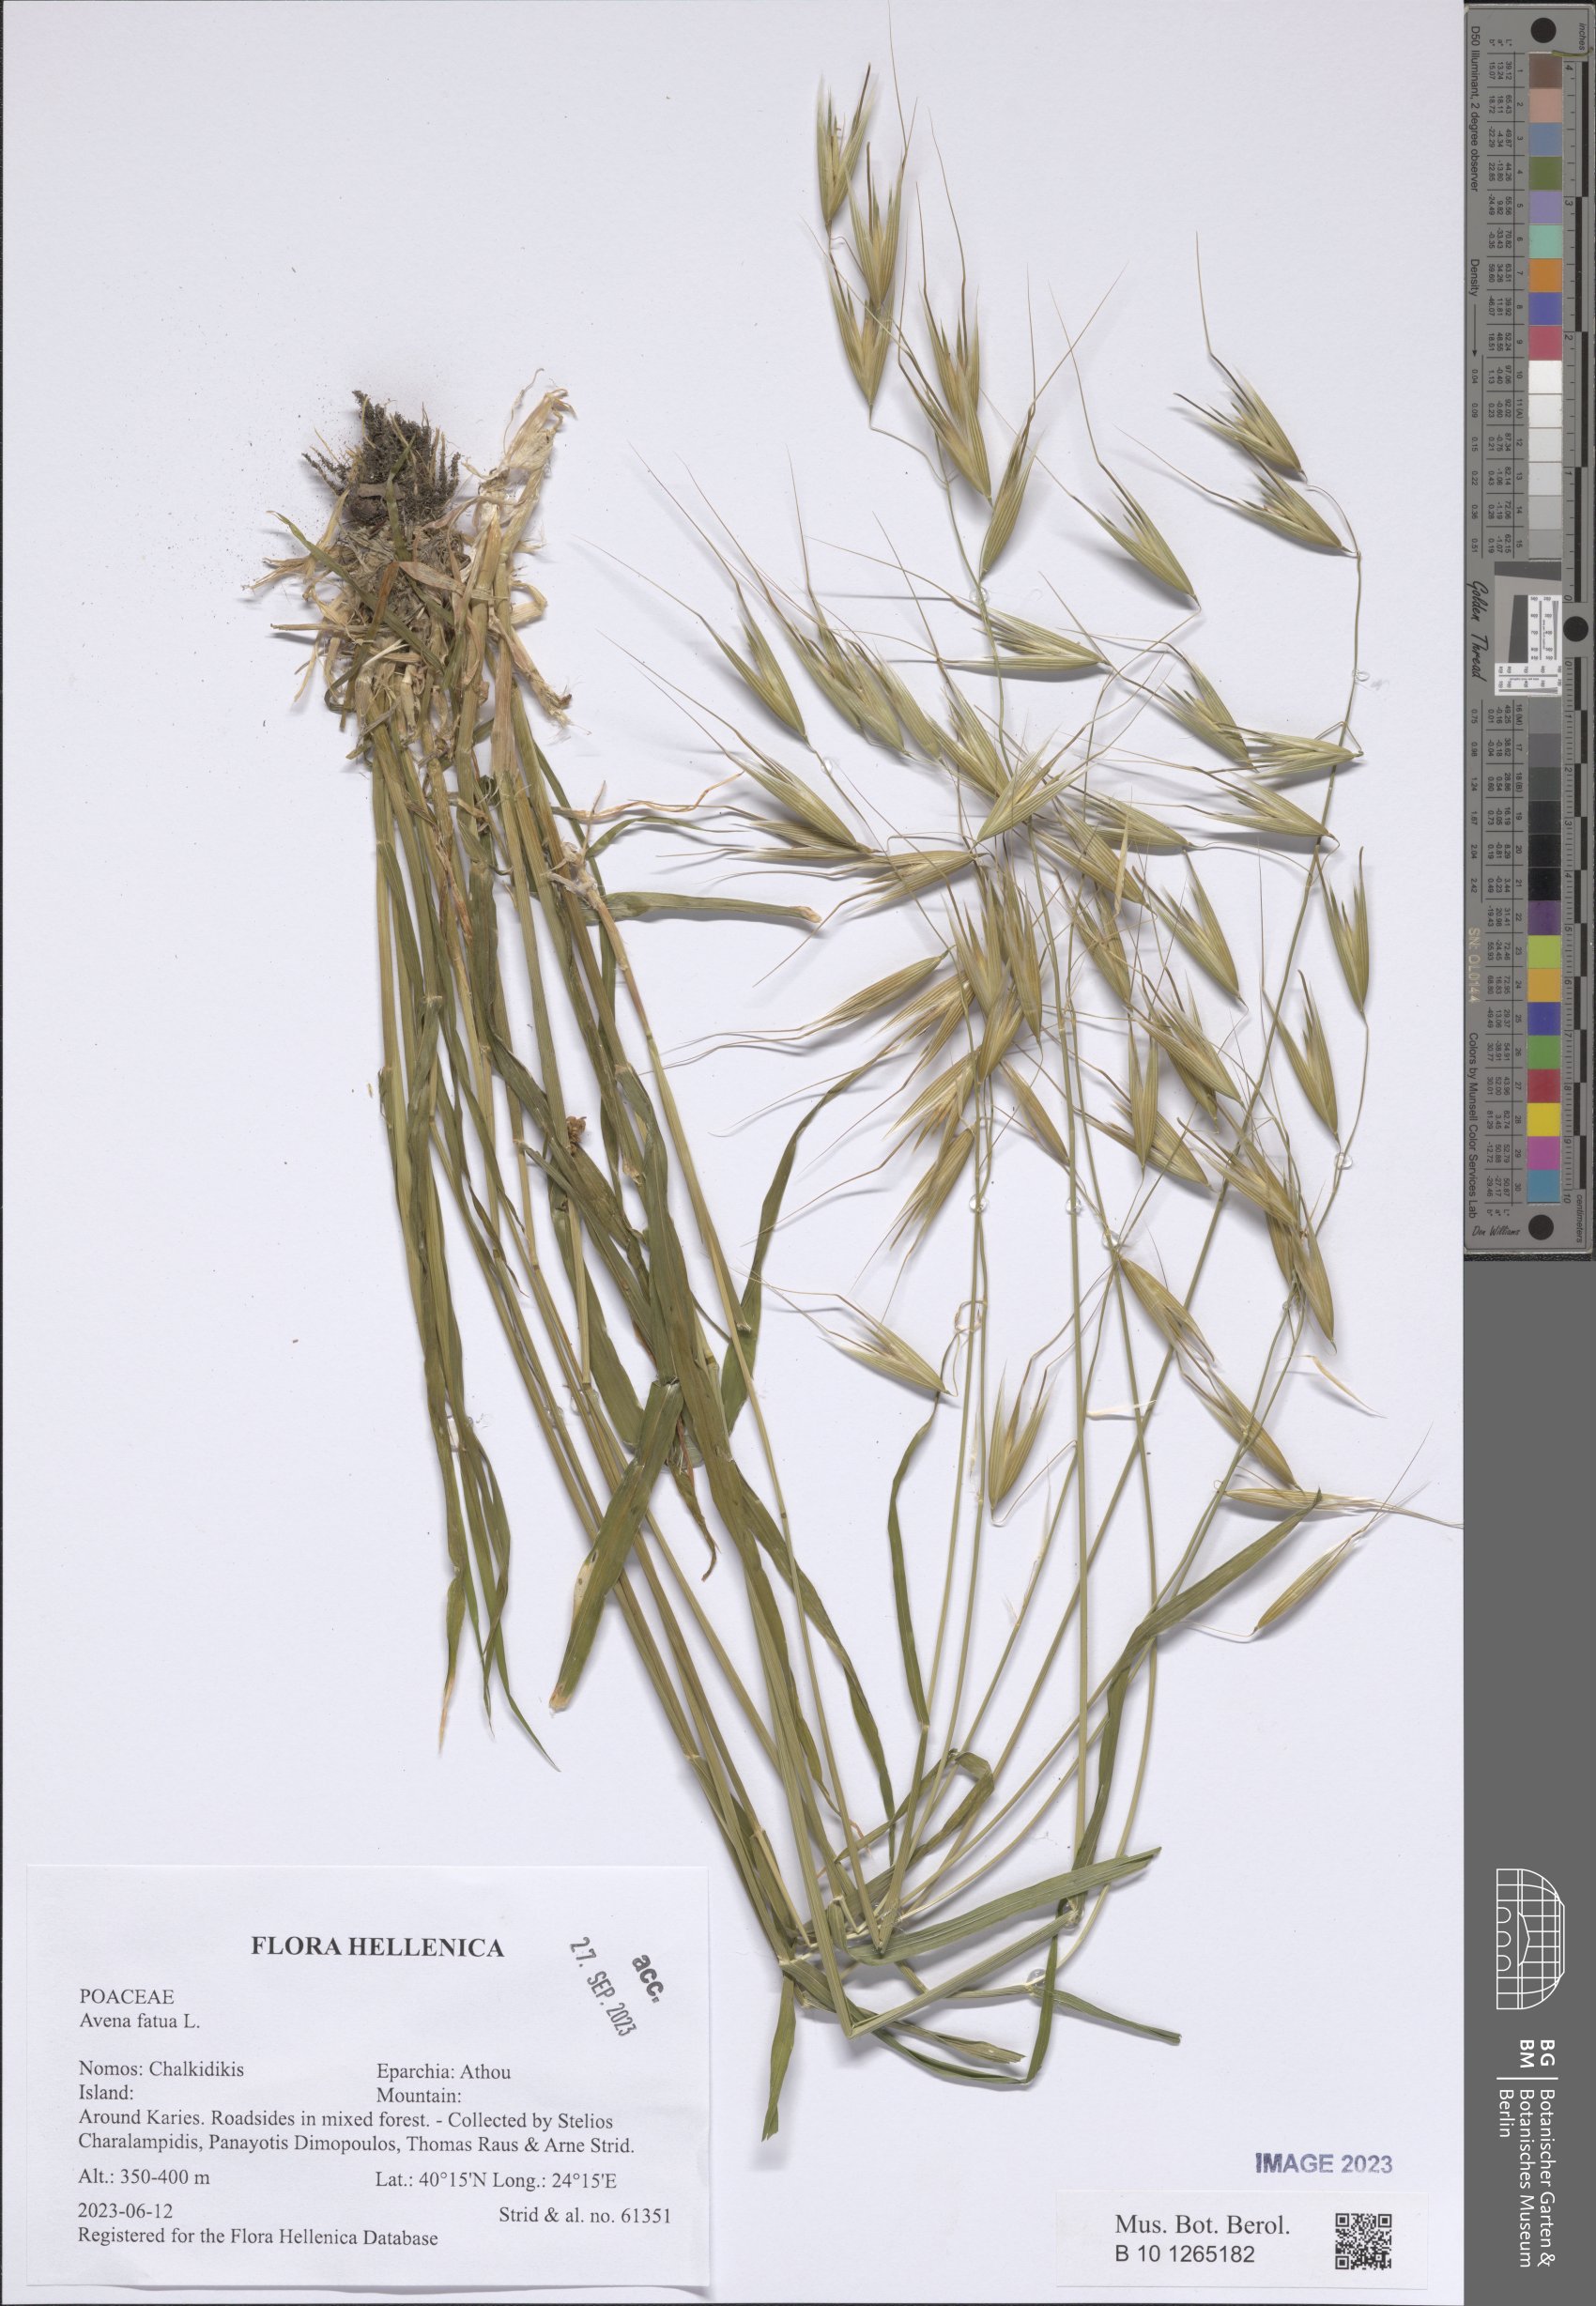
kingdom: Plantae
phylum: Tracheophyta
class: Liliopsida
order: Poales
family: Poaceae
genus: Avena
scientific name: Avena fatua
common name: Wild oat
